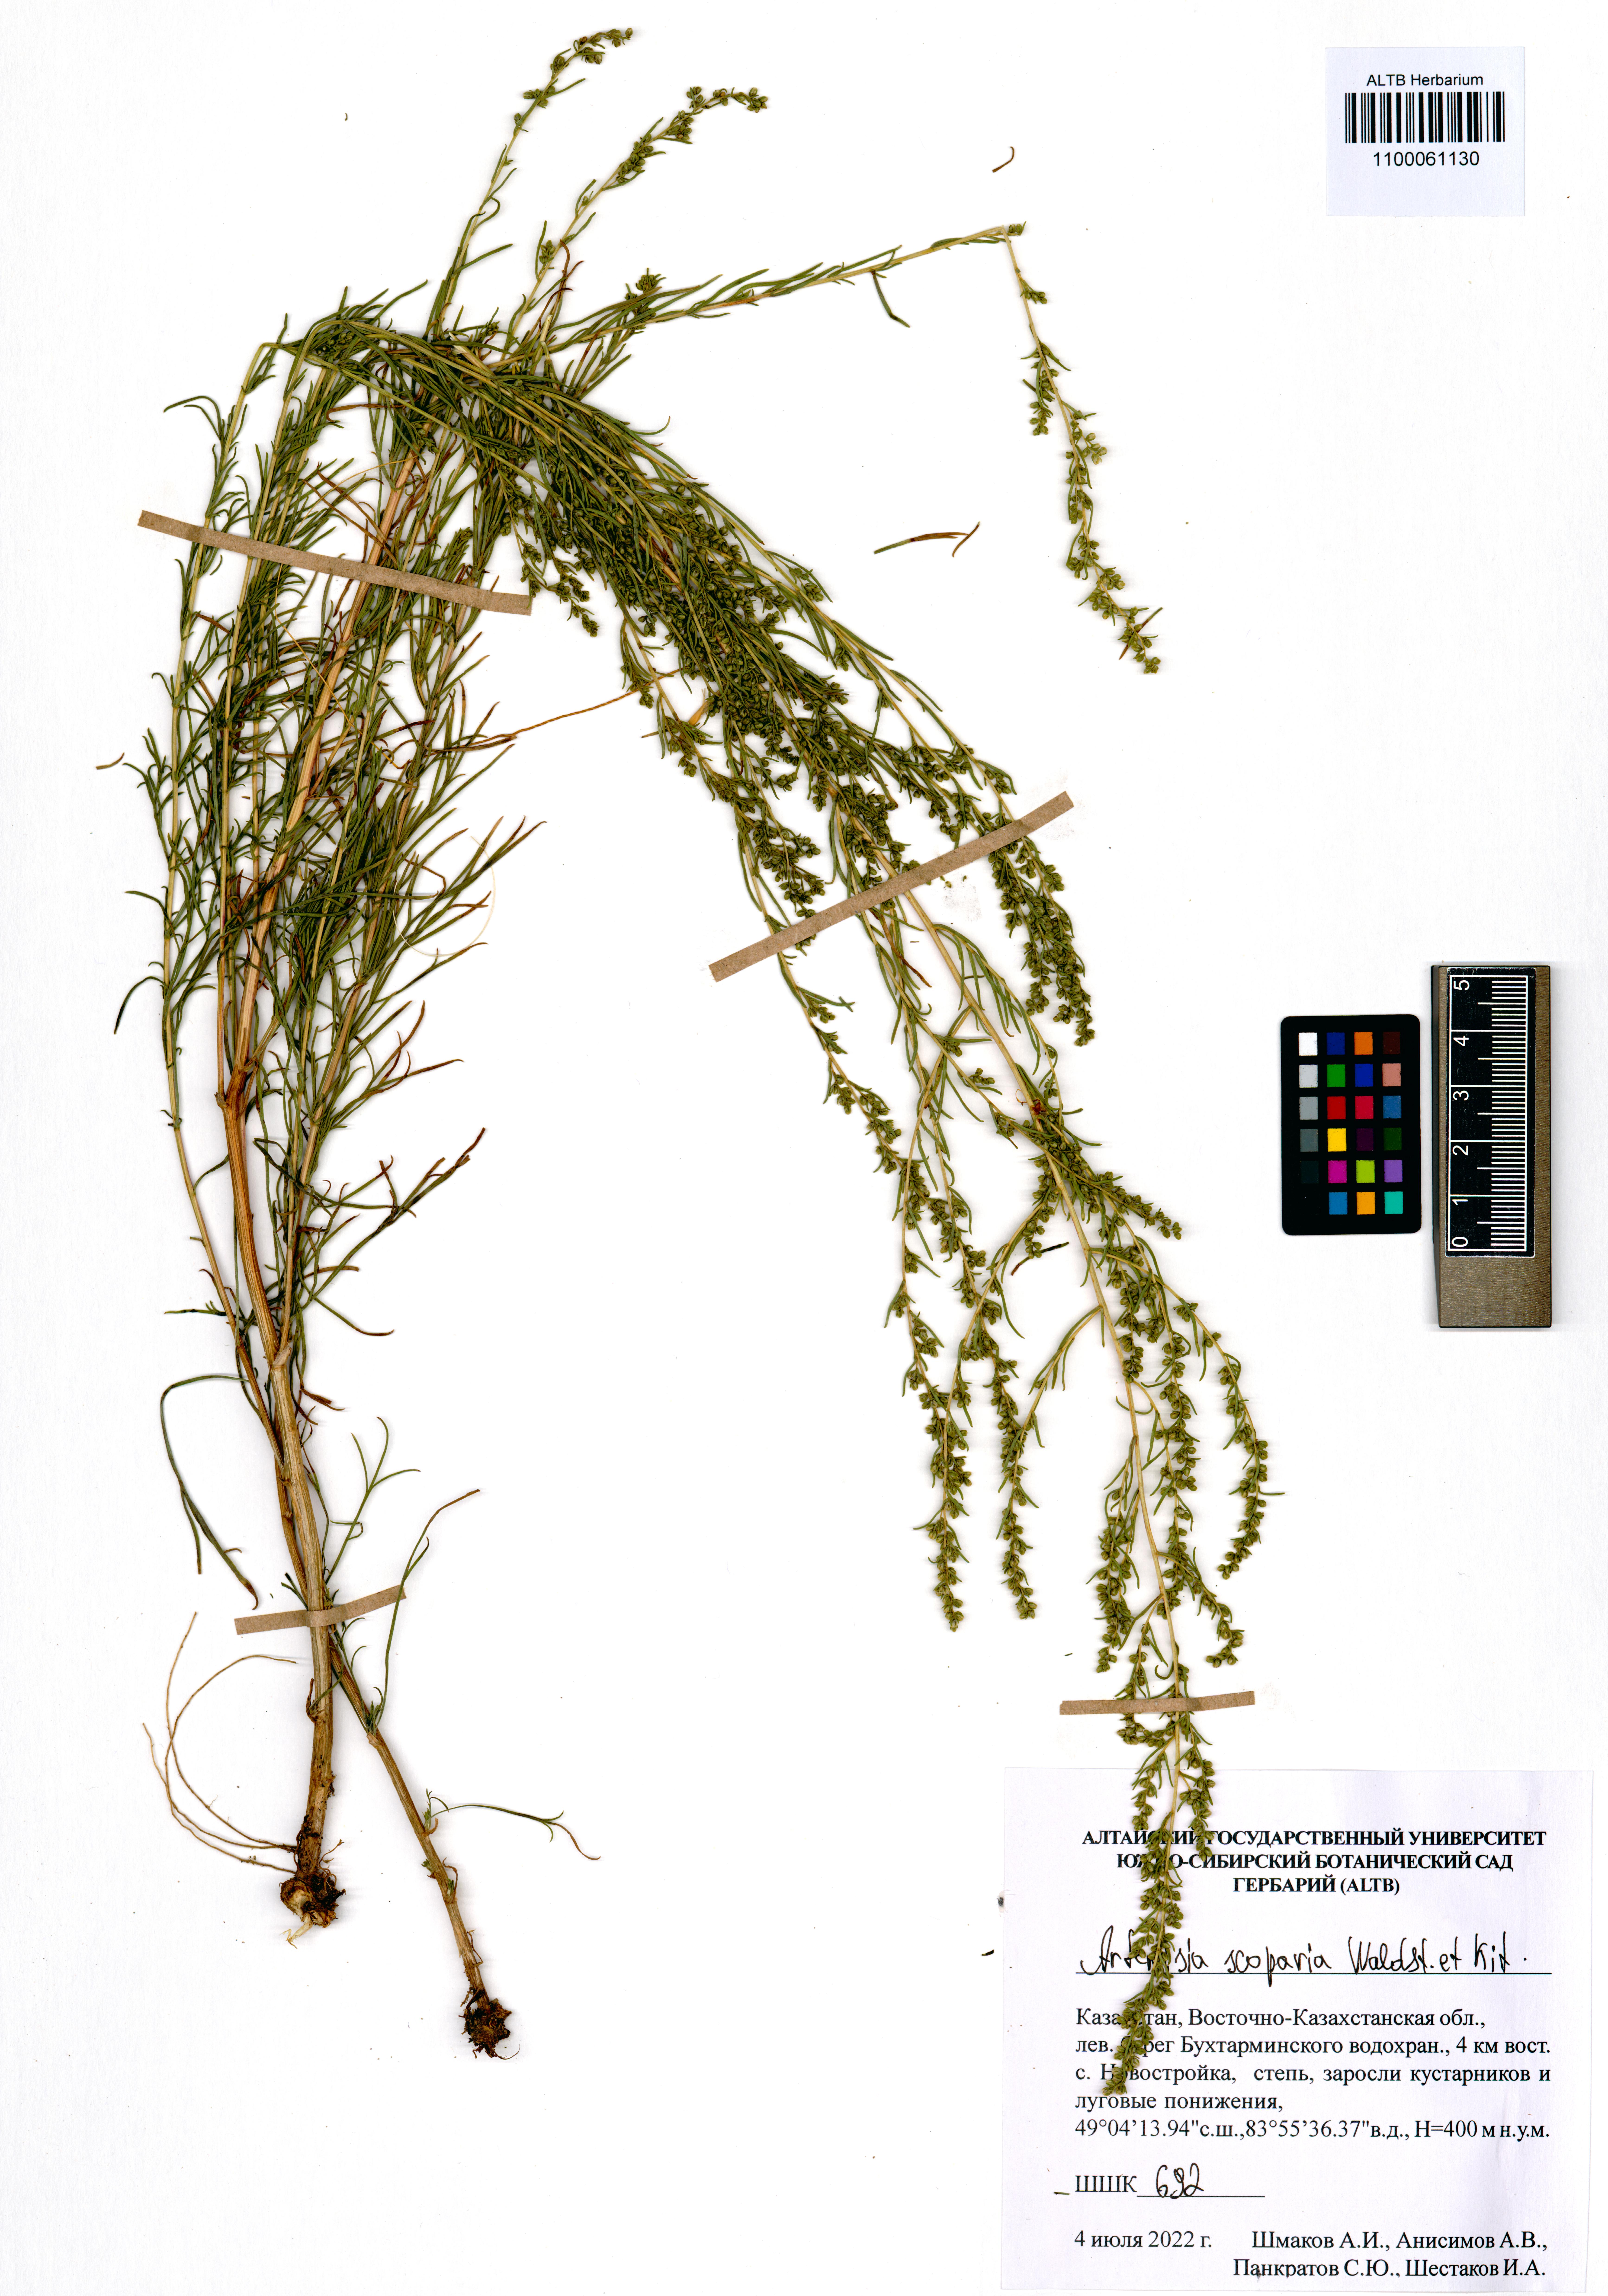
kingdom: Plantae
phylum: Tracheophyta
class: Magnoliopsida
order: Asterales
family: Asteraceae
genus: Artemisia
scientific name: Artemisia scoparia
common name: Redstem wormwood
